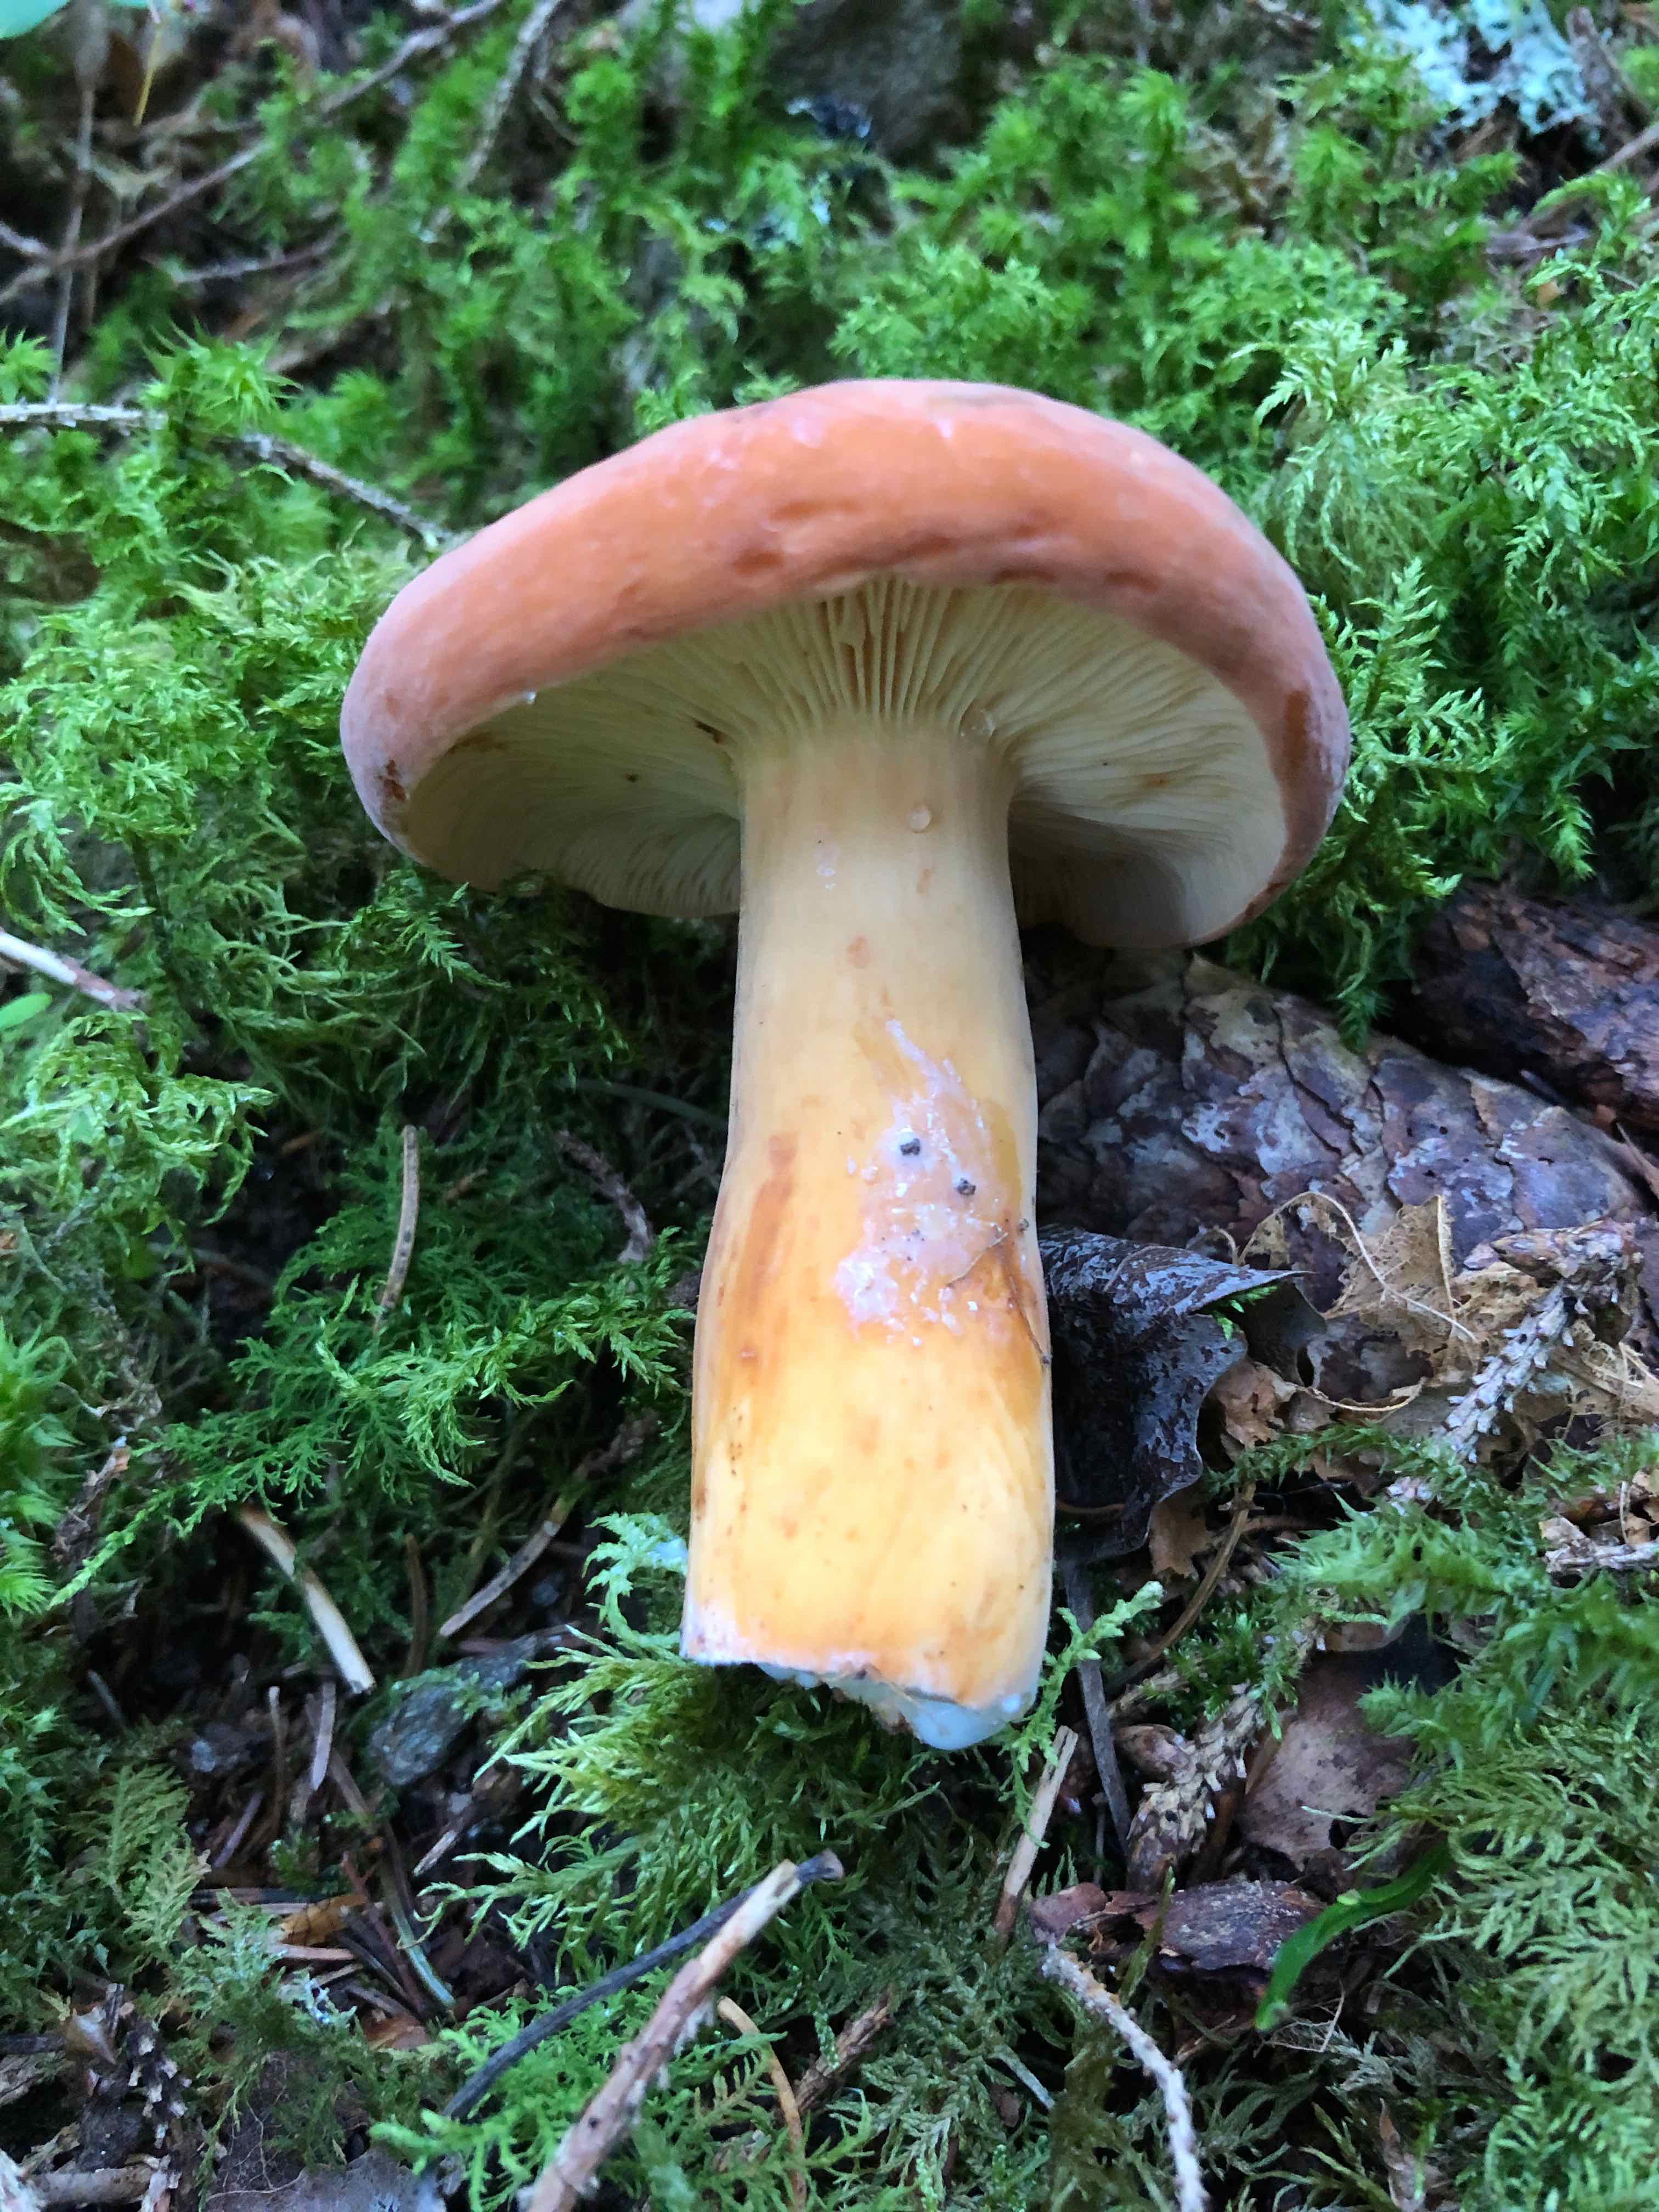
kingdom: Fungi
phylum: Basidiomycota
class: Agaricomycetes
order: Russulales
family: Russulaceae
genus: Lactifluus
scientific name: Lactifluus volemus
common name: spiselig mælkehat
